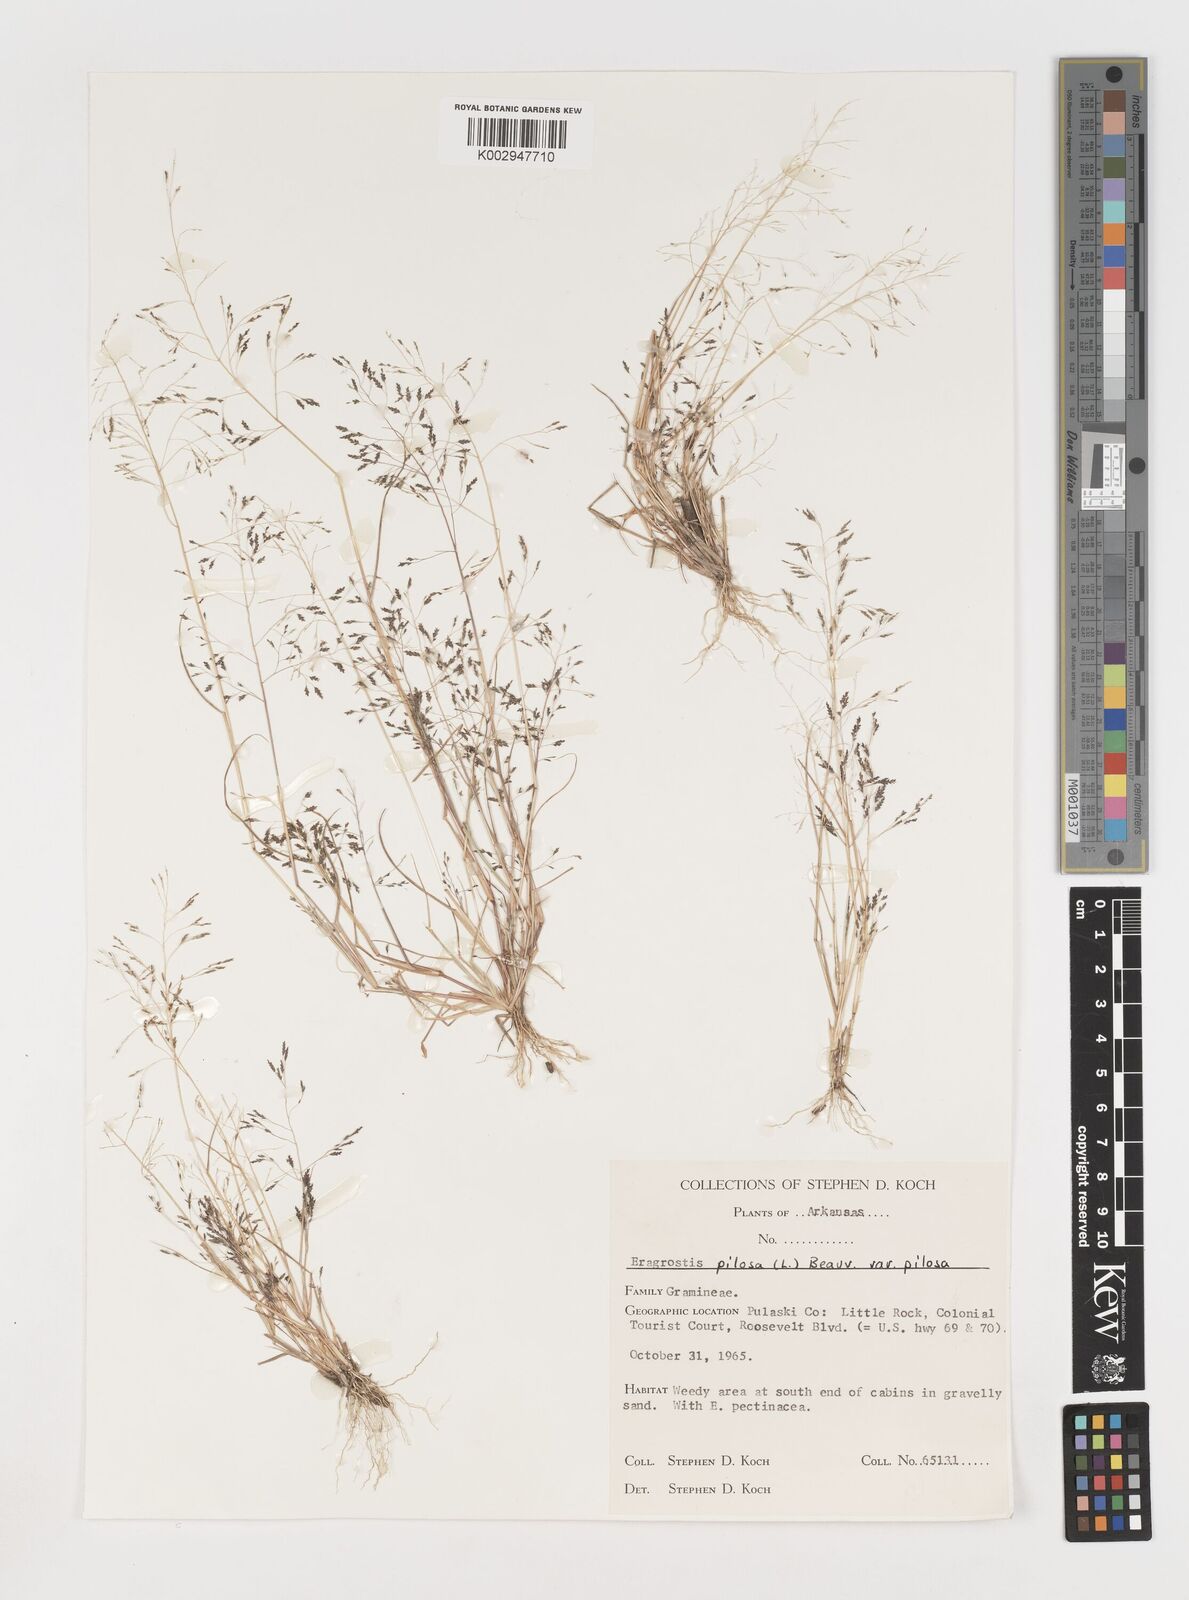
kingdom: Plantae
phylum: Tracheophyta
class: Liliopsida
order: Poales
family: Poaceae
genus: Eragrostis
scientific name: Eragrostis pilosa
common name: Indian lovegrass
